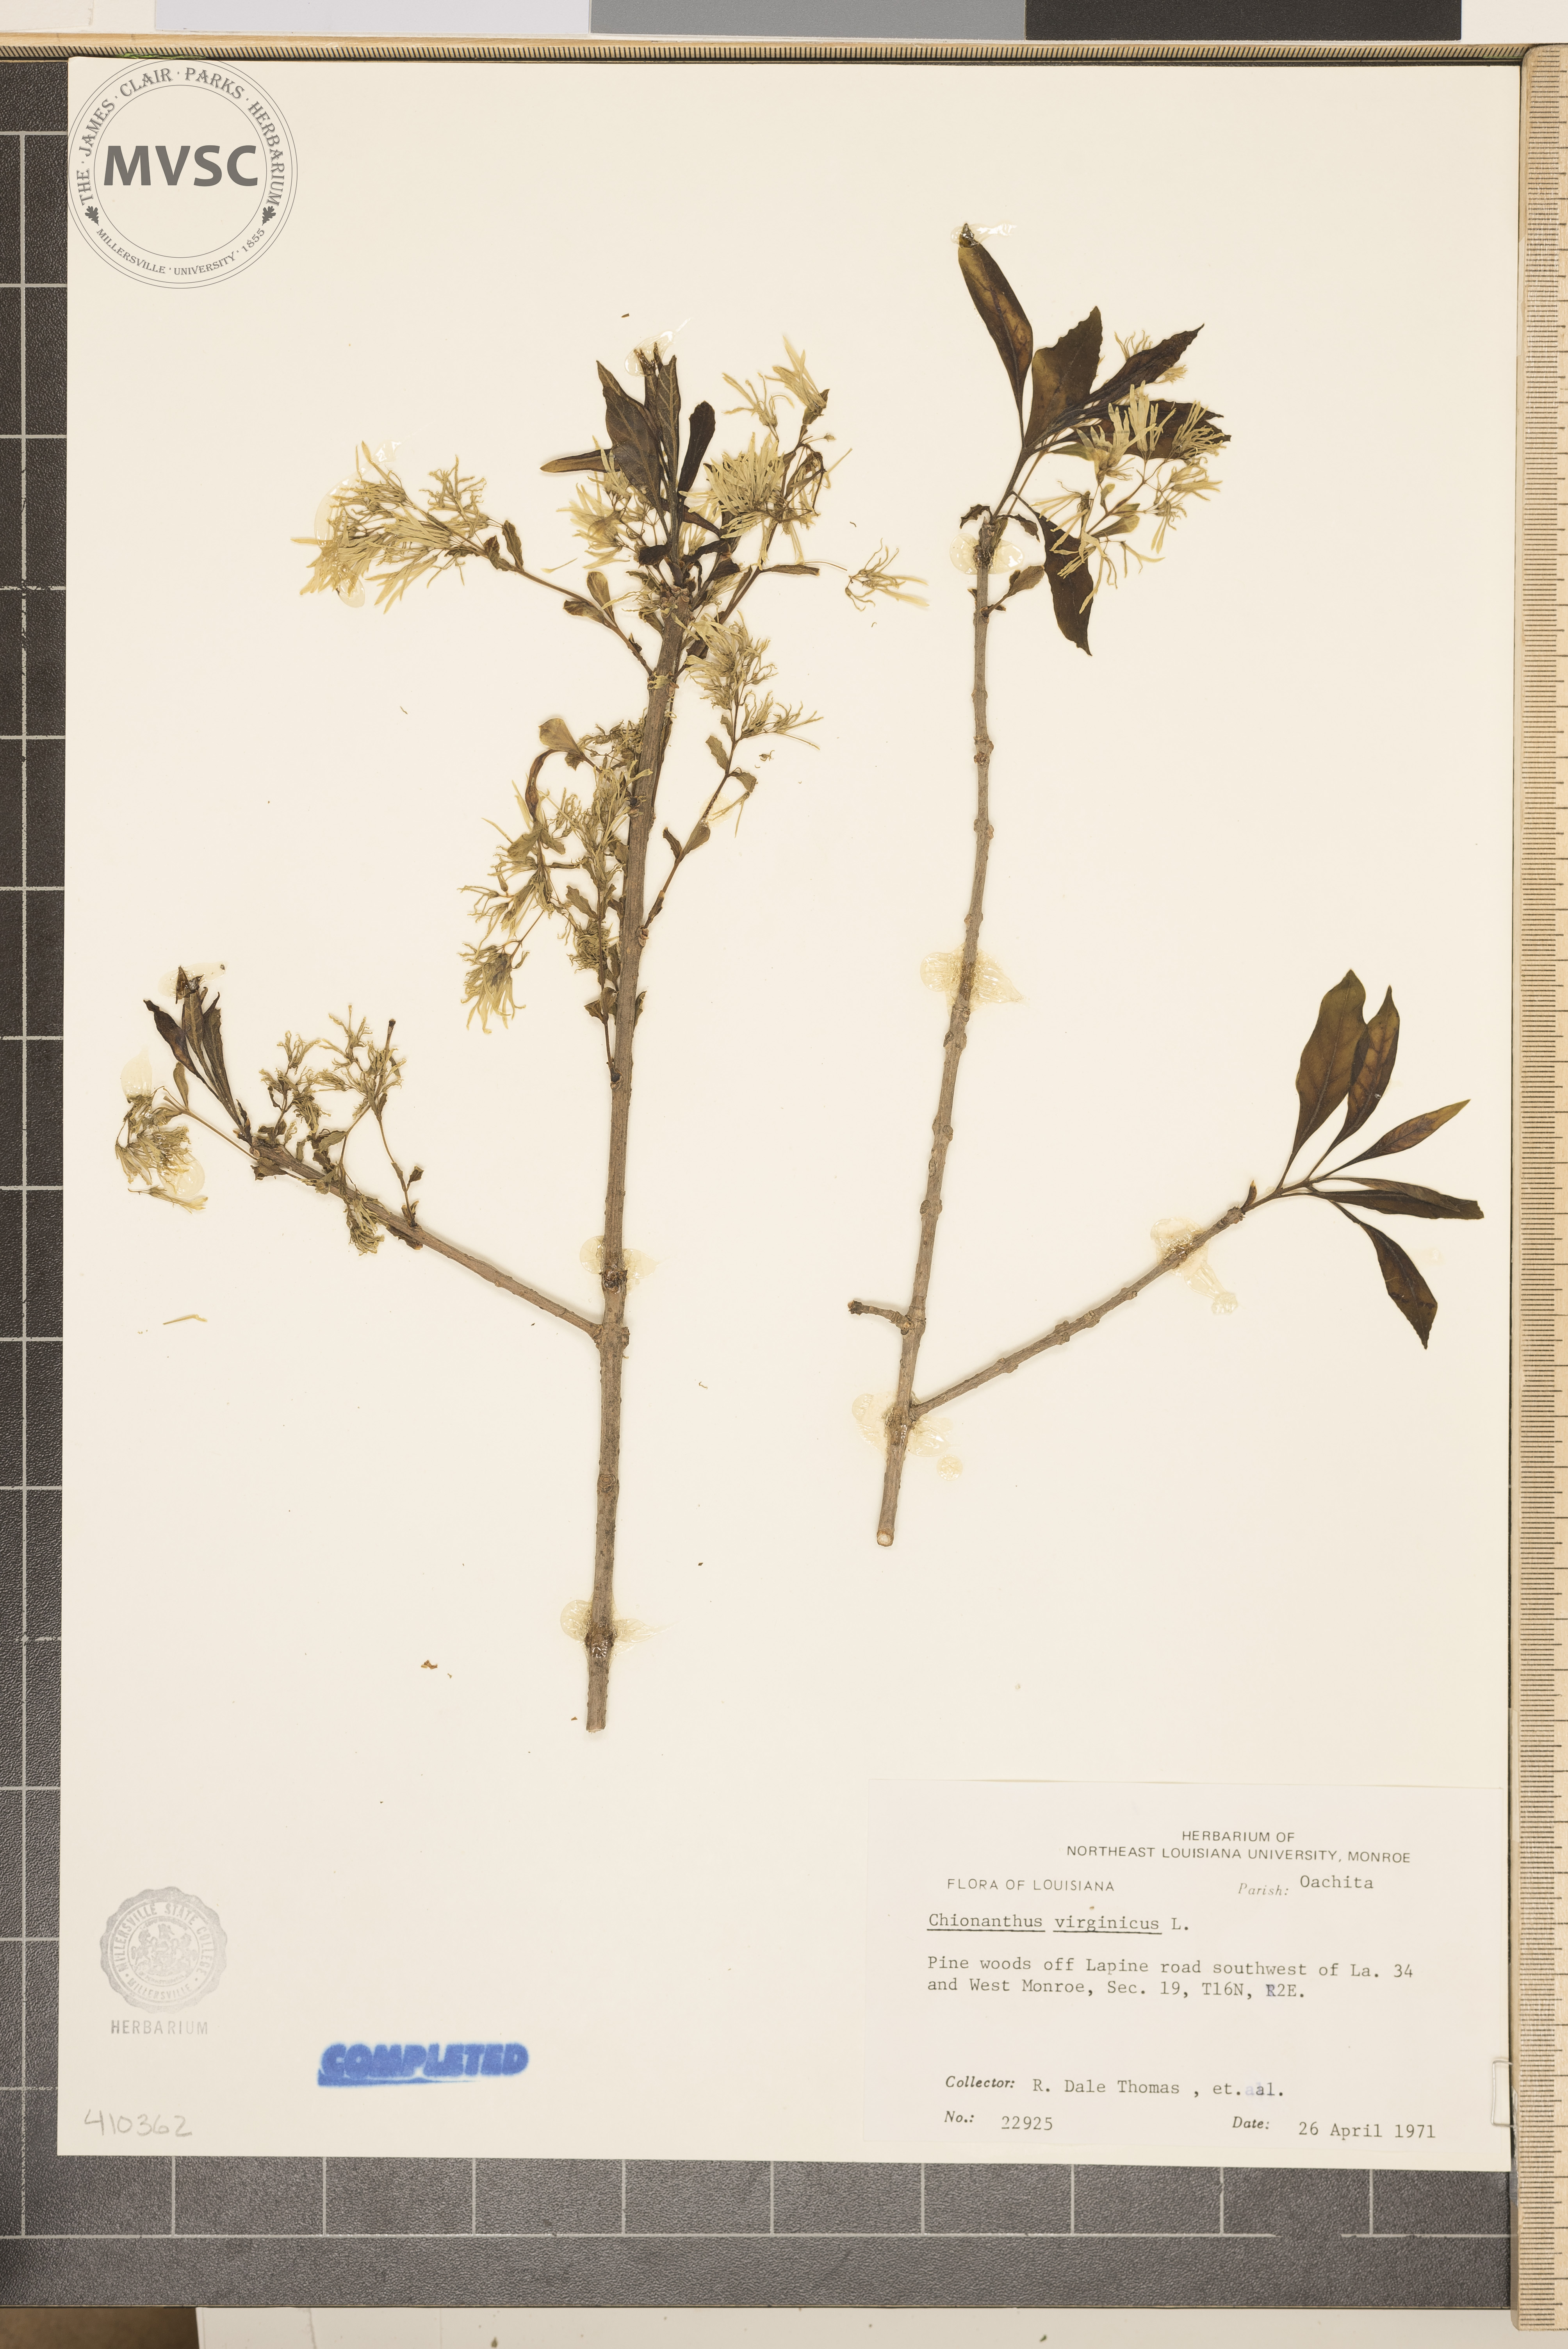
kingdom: Plantae
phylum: Tracheophyta
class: Magnoliopsida
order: Lamiales
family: Oleaceae
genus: Chionanthus
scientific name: Chionanthus virginicus
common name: American fringetree
